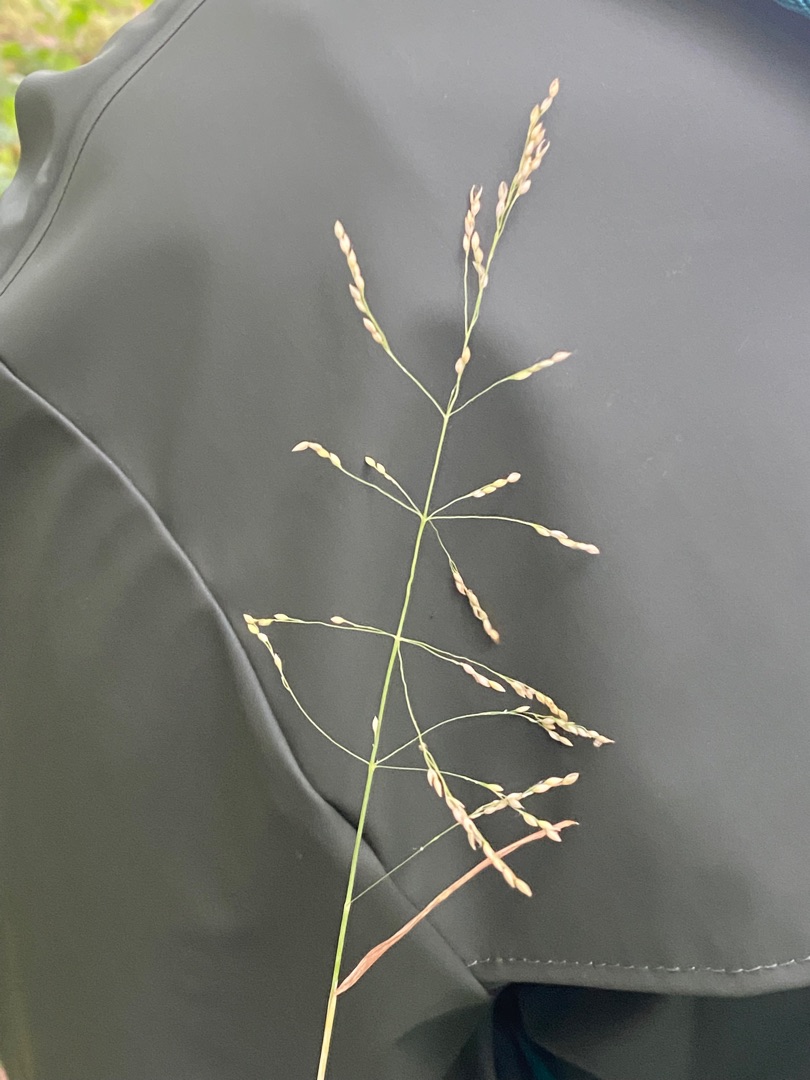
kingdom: Plantae
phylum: Tracheophyta
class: Liliopsida
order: Poales
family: Poaceae
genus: Milium
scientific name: Milium effusum
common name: Miliegræs
